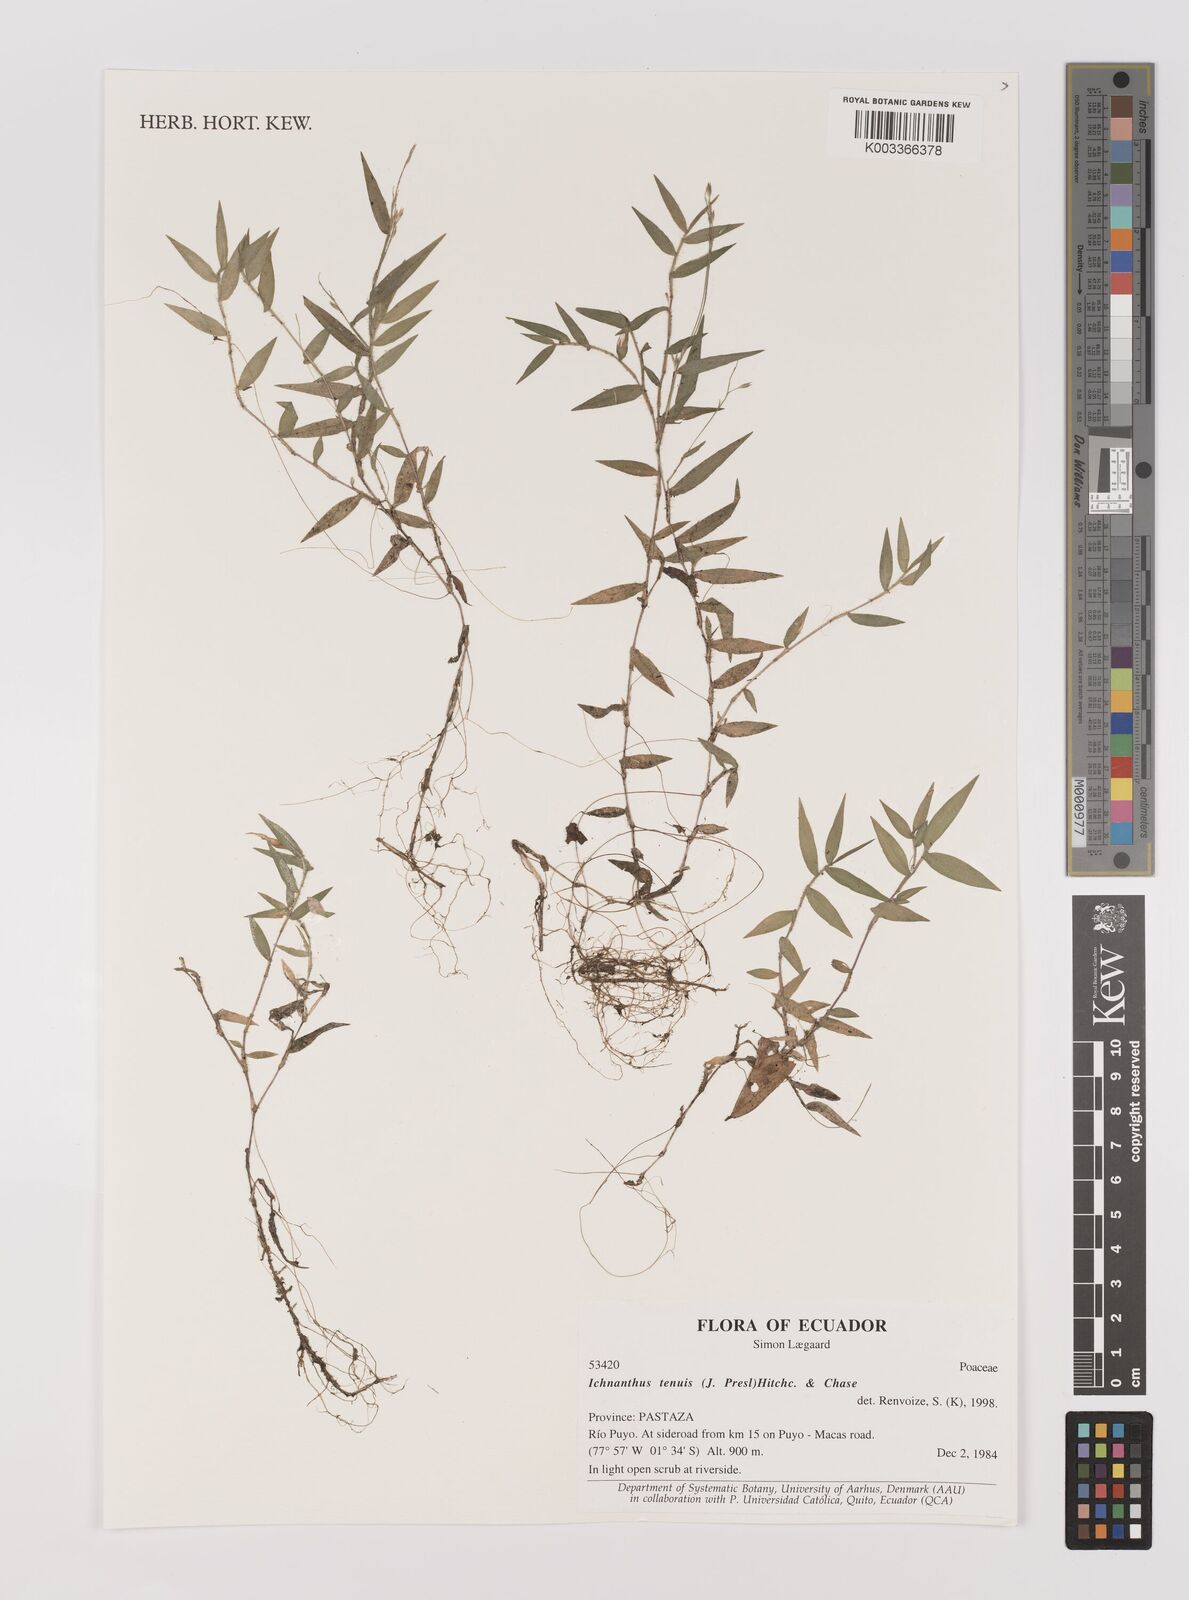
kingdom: Plantae
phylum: Tracheophyta
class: Liliopsida
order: Poales
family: Poaceae
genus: Ichnanthus
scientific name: Ichnanthus tenuis
